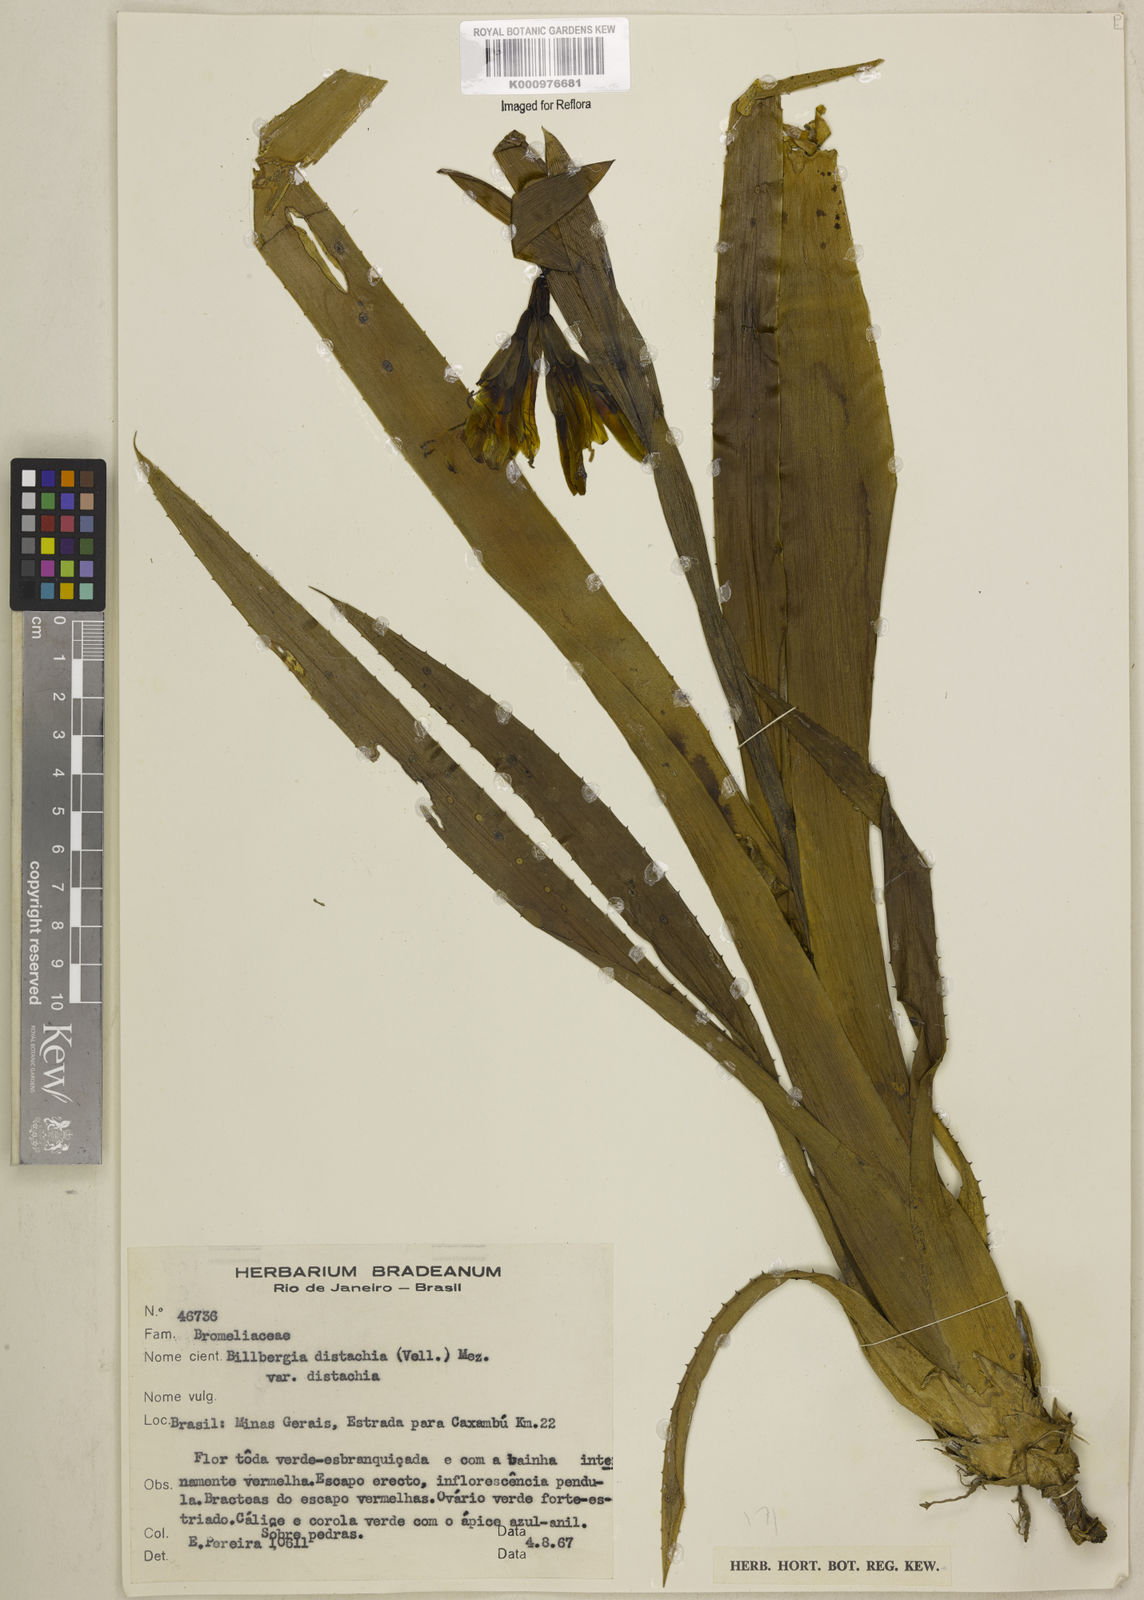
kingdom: Plantae
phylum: Tracheophyta
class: Liliopsida
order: Poales
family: Bromeliaceae
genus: Billbergia
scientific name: Billbergia distachia
